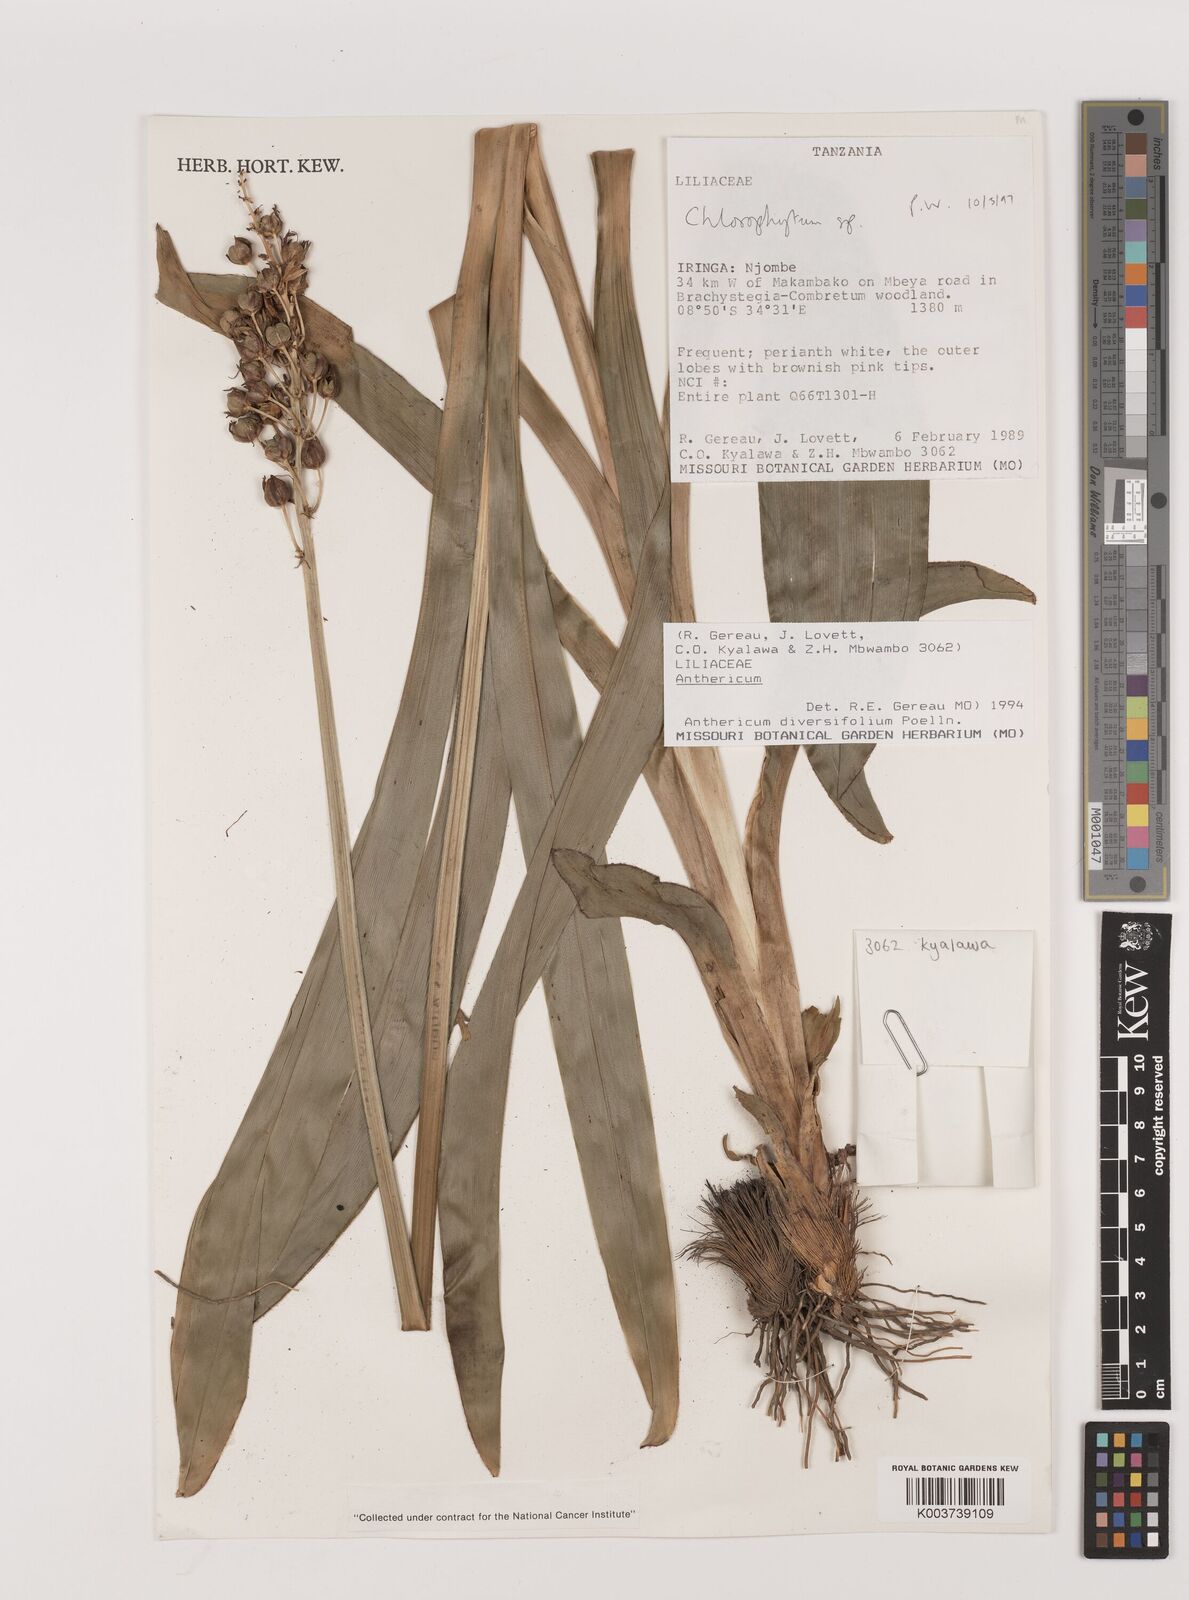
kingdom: Plantae
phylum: Tracheophyta
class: Liliopsida
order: Asparagales
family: Asparagaceae
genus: Chlorophytum
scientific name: Chlorophytum
